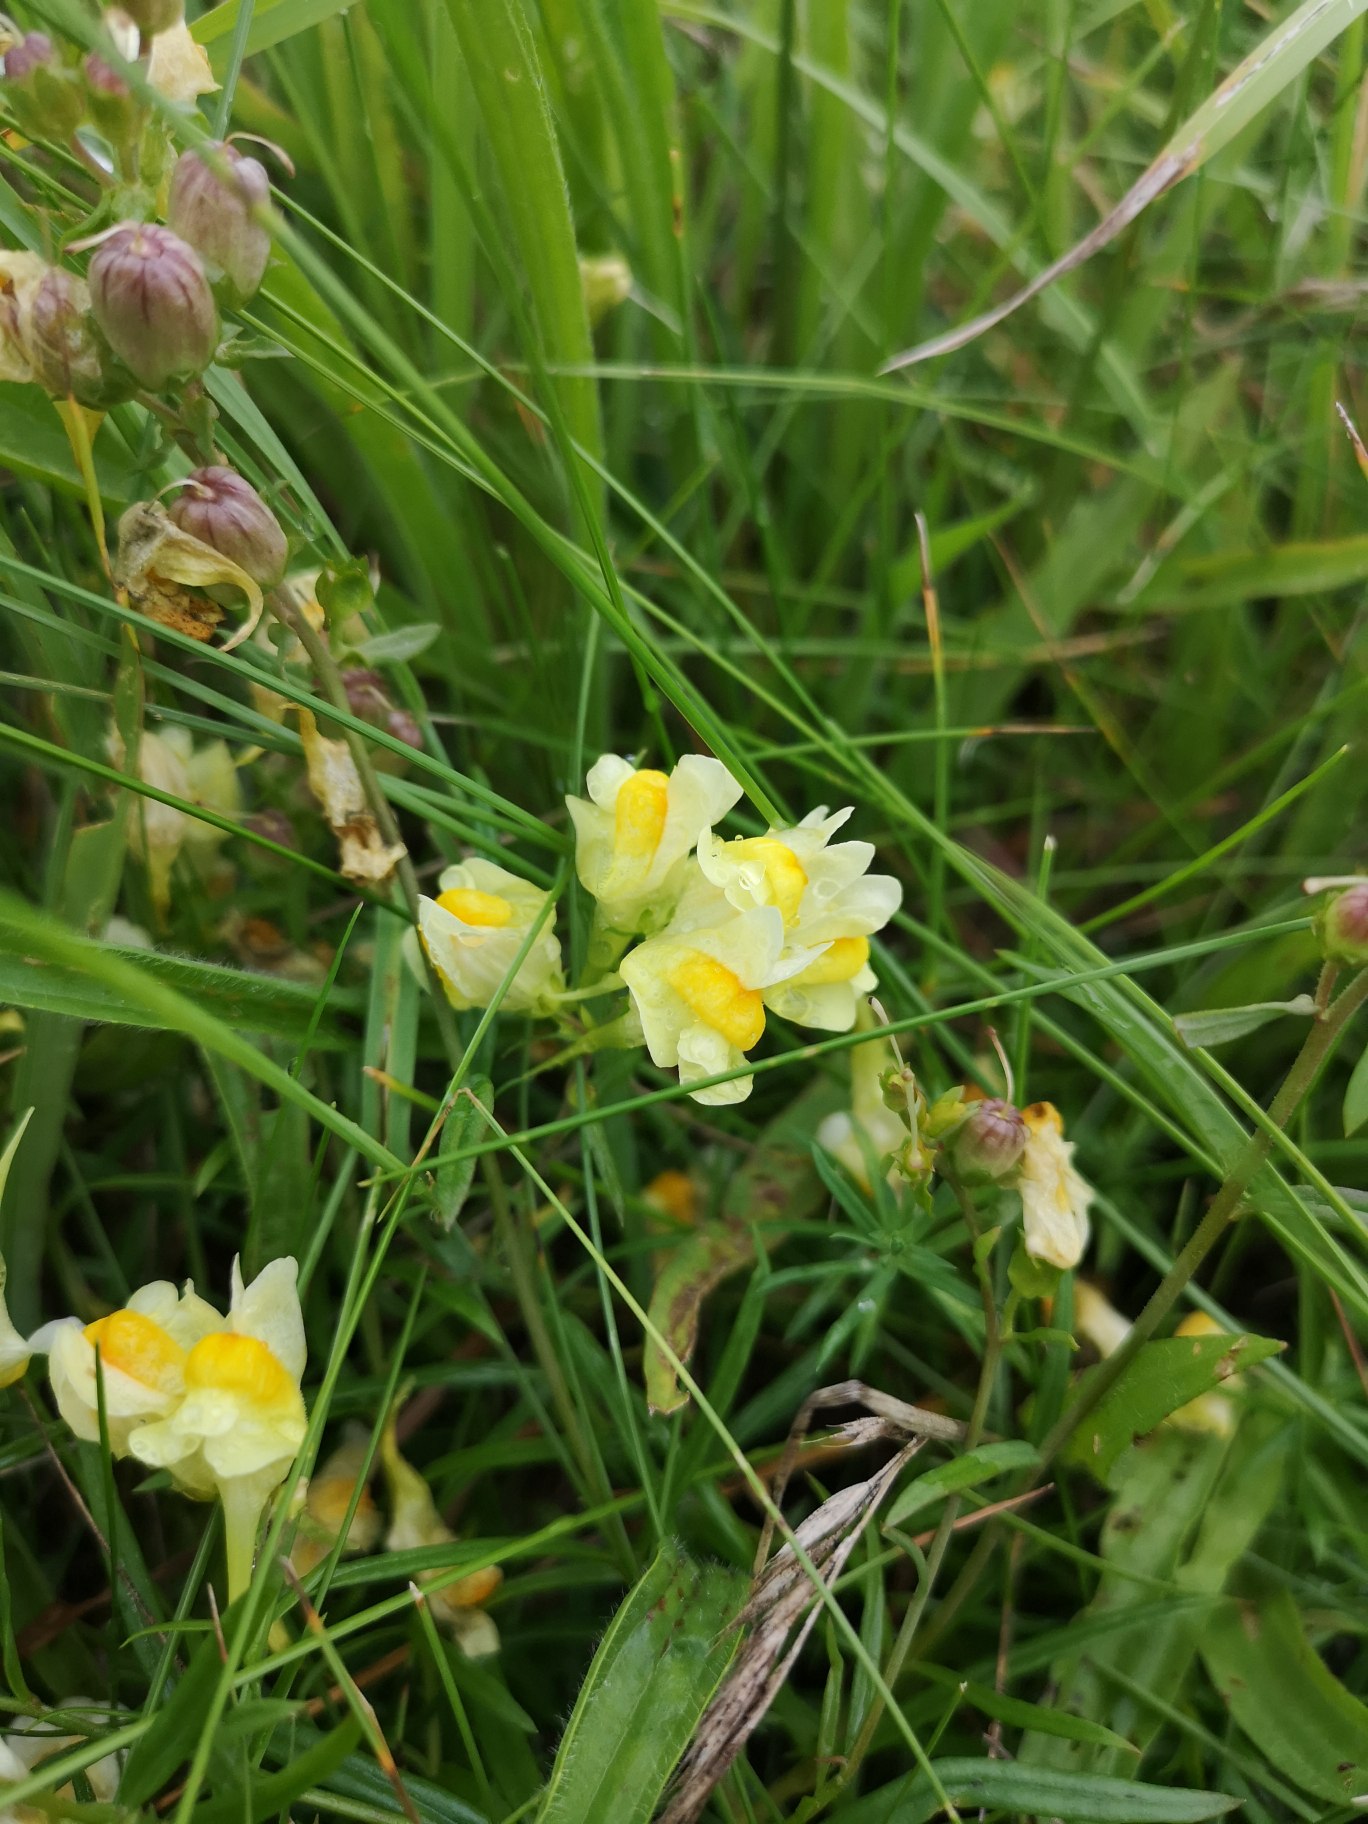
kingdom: Plantae
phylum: Tracheophyta
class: Magnoliopsida
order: Lamiales
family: Plantaginaceae
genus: Linaria
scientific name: Linaria vulgaris
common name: Almindelig torskemund
